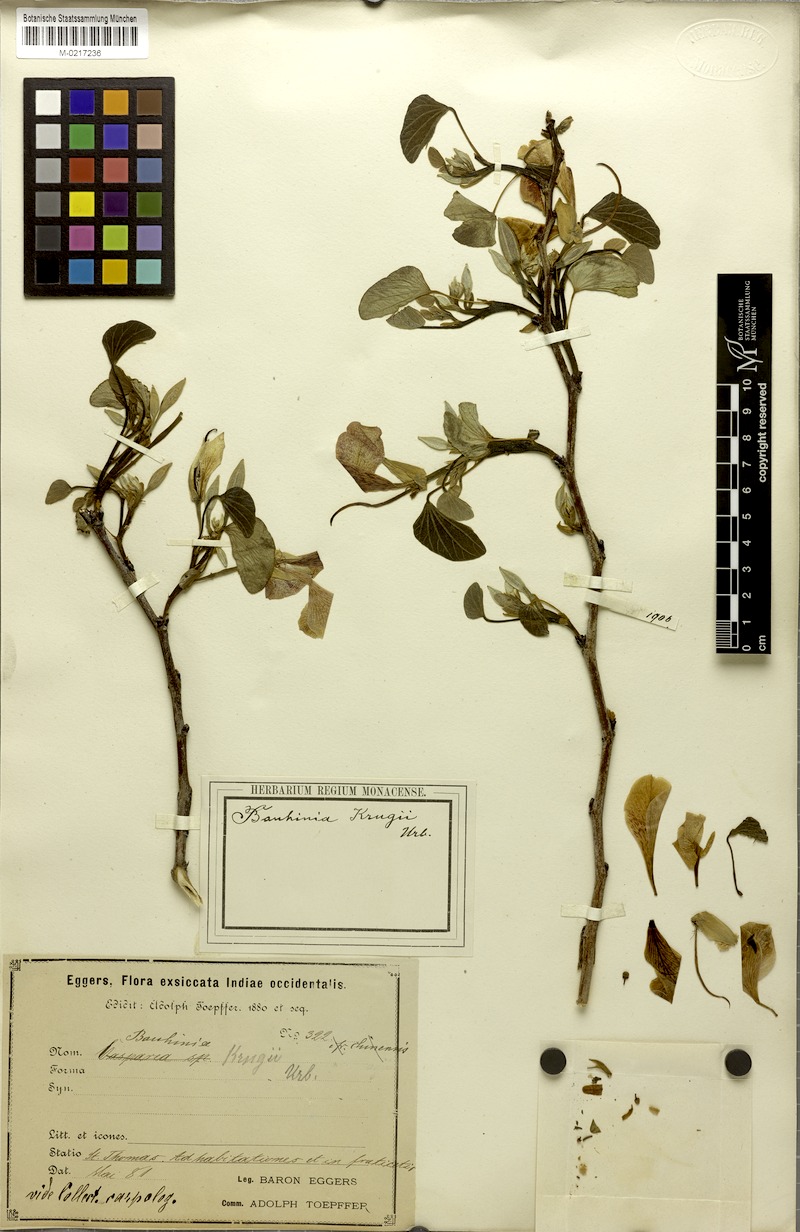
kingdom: Plantae
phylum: Tracheophyta
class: Magnoliopsida
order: Fabales
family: Fabaceae
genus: Bauhinia
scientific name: Bauhinia monandra
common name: Napoleon's plume
